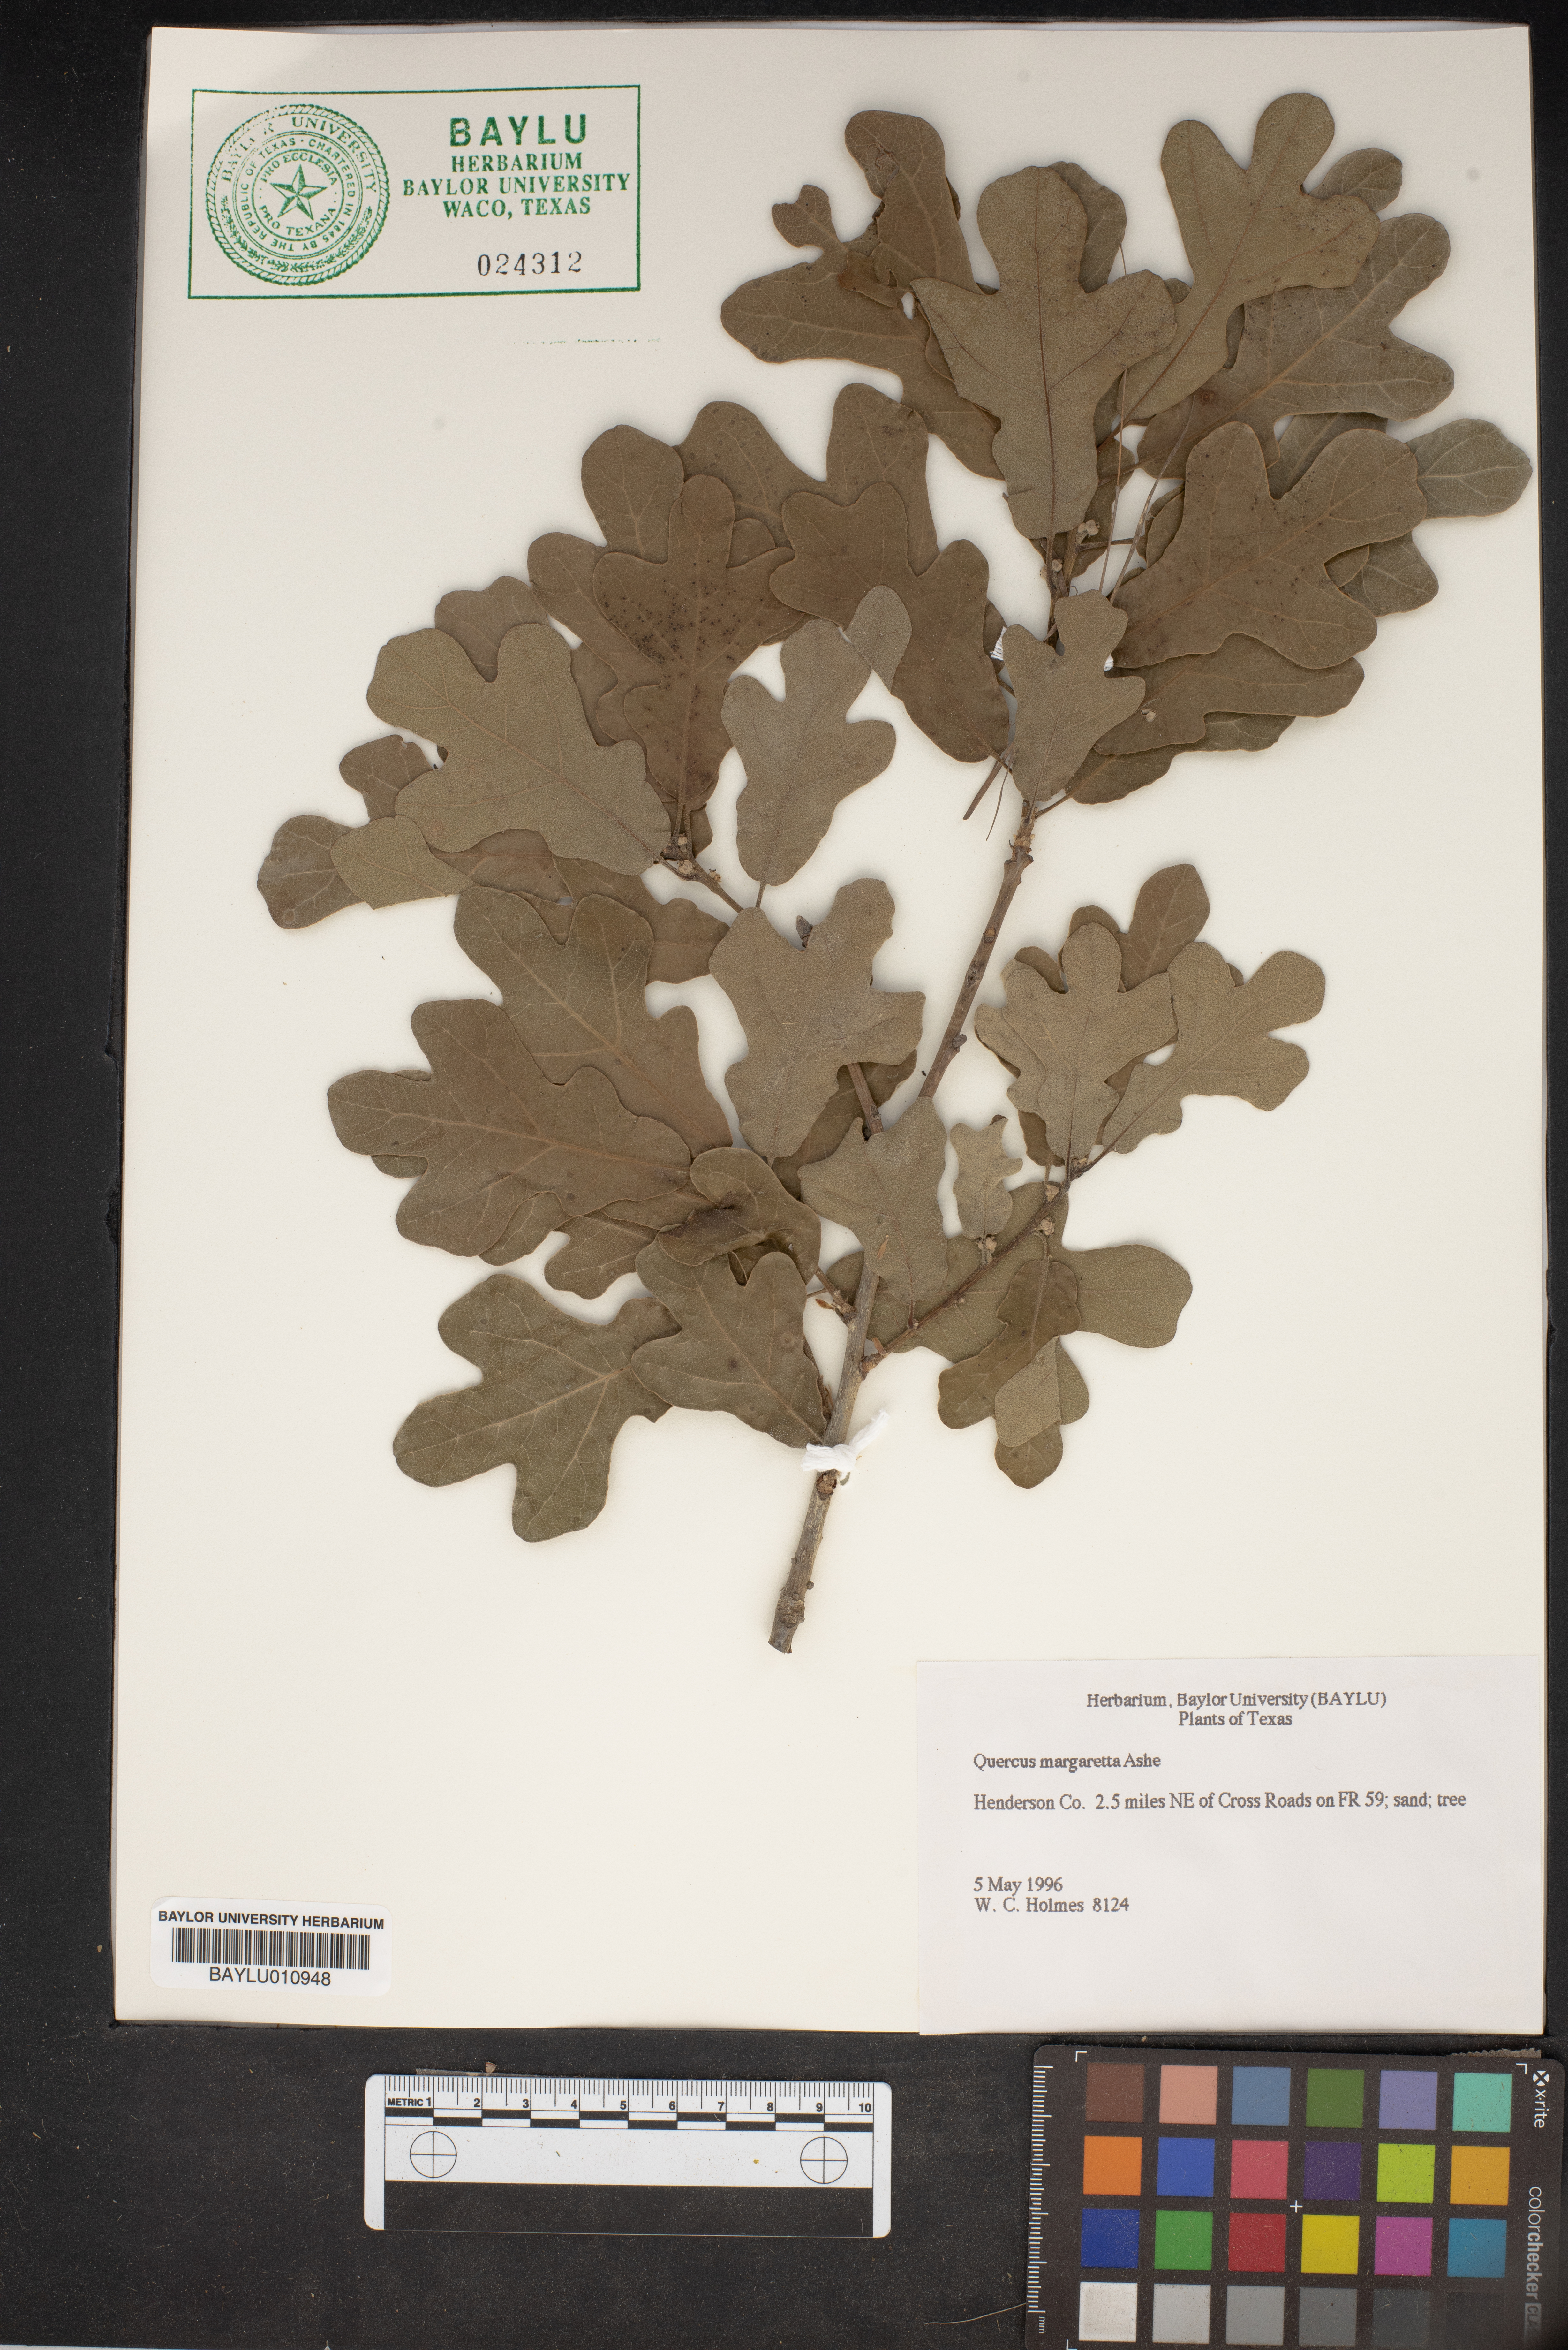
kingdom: Plantae
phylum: Tracheophyta
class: Magnoliopsida
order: Fagales
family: Fagaceae
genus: Quercus
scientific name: Quercus margaretta
